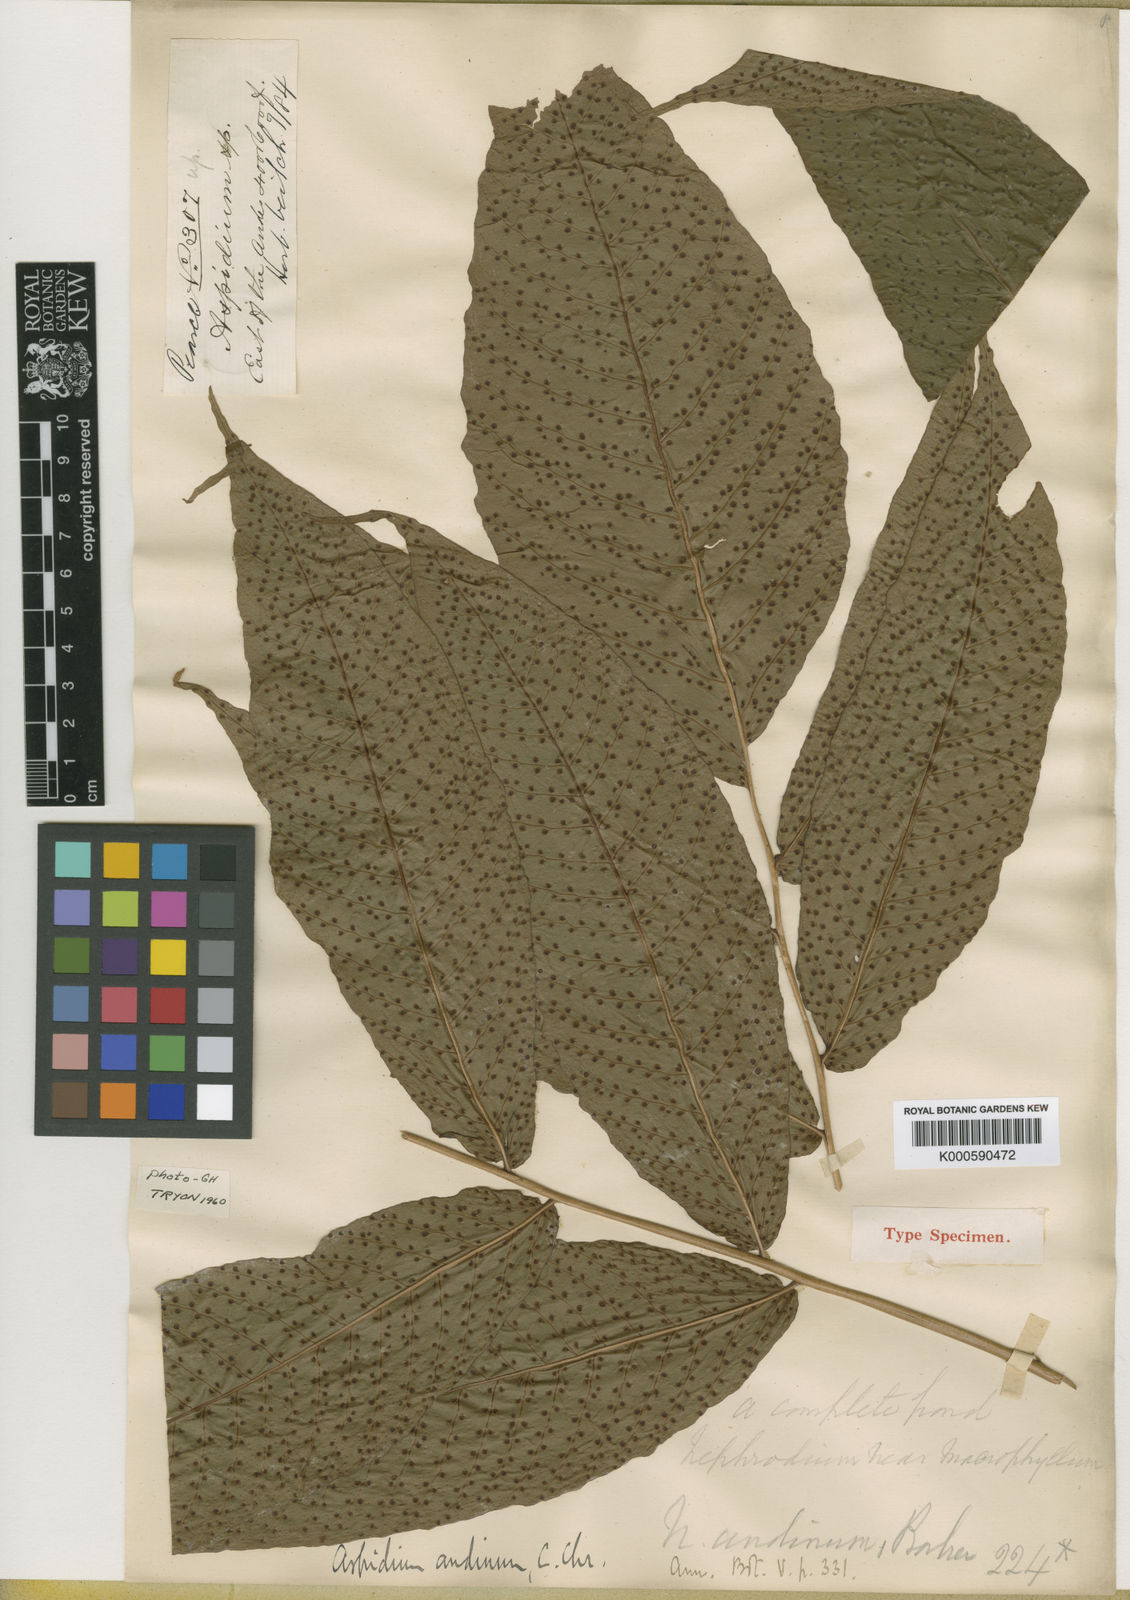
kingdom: Plantae
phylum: Tracheophyta
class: Polypodiopsida
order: Polypodiales
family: Tectariaceae
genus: Tectaria
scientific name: Tectaria incisa
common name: Incised halberd fern
